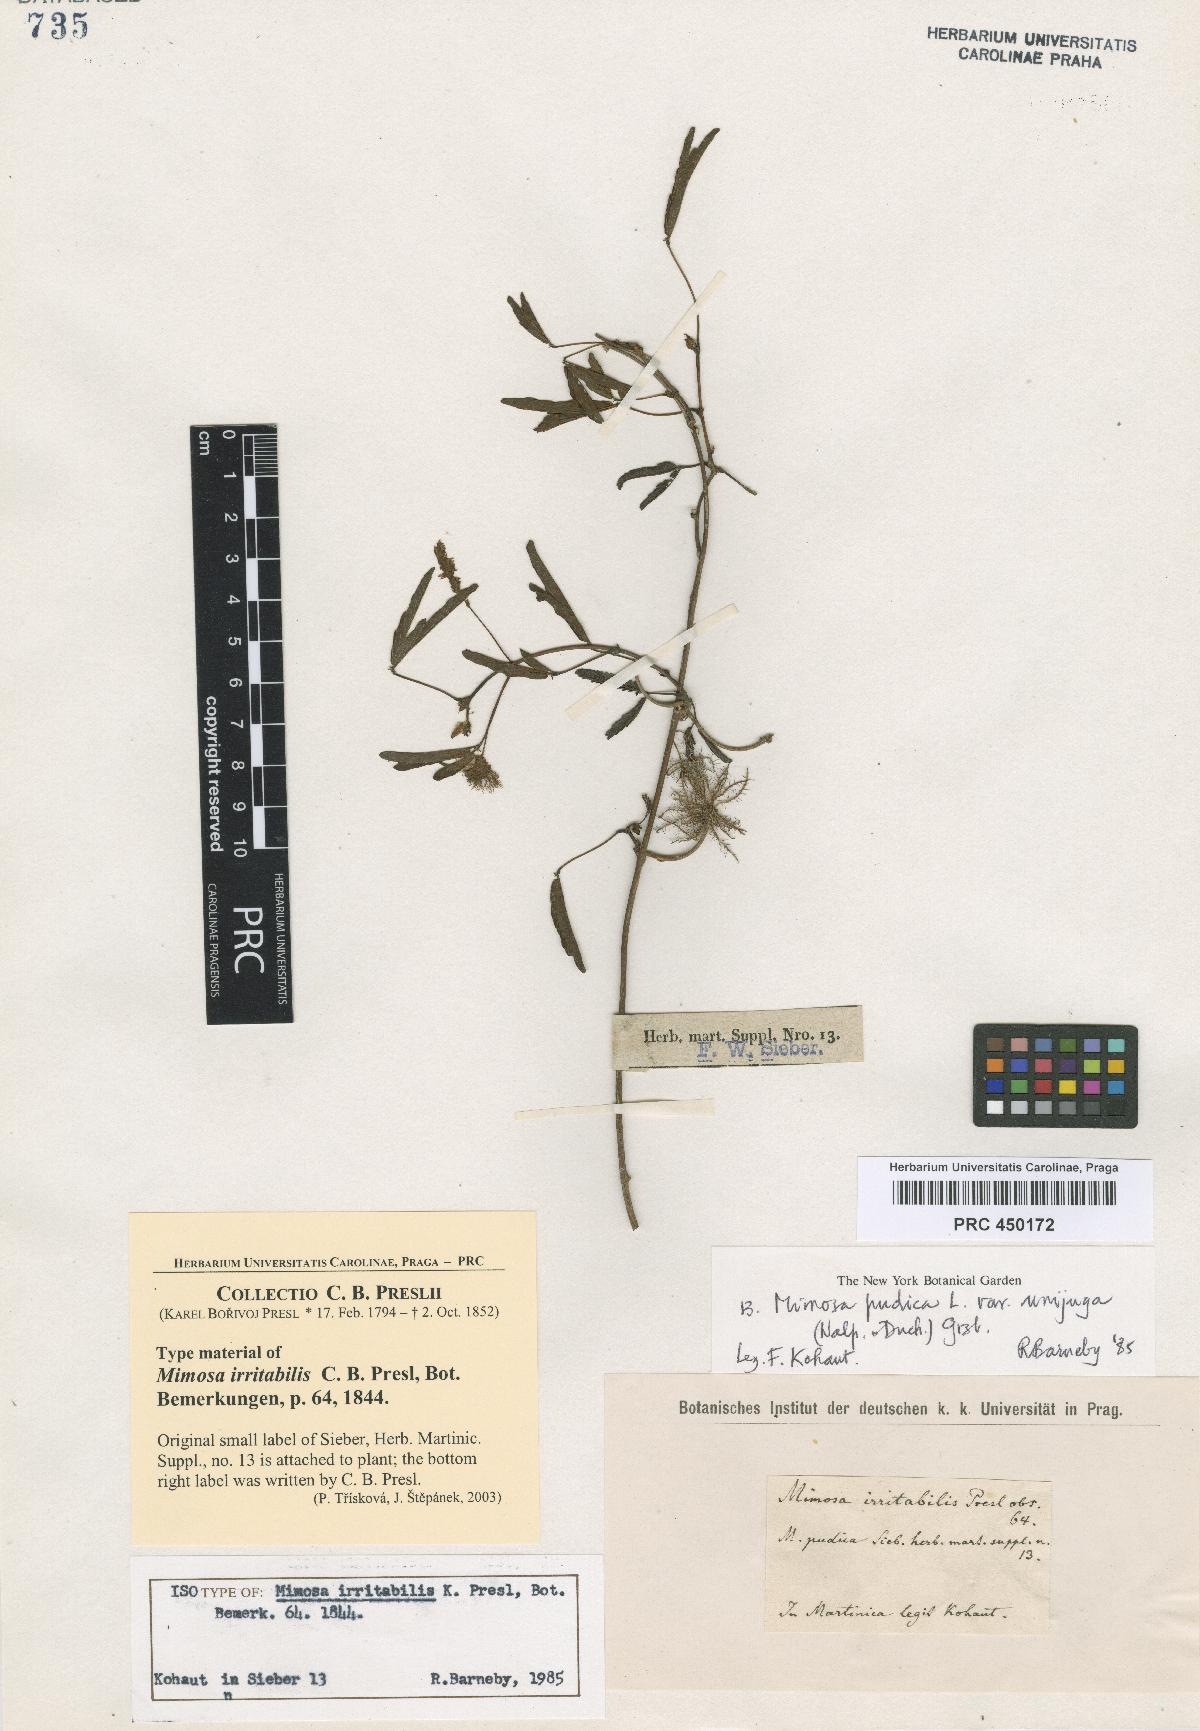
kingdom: Plantae
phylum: Tracheophyta
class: Magnoliopsida
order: Fabales
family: Fabaceae
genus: Mimosa
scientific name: Mimosa pudica
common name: Sensitive plant
